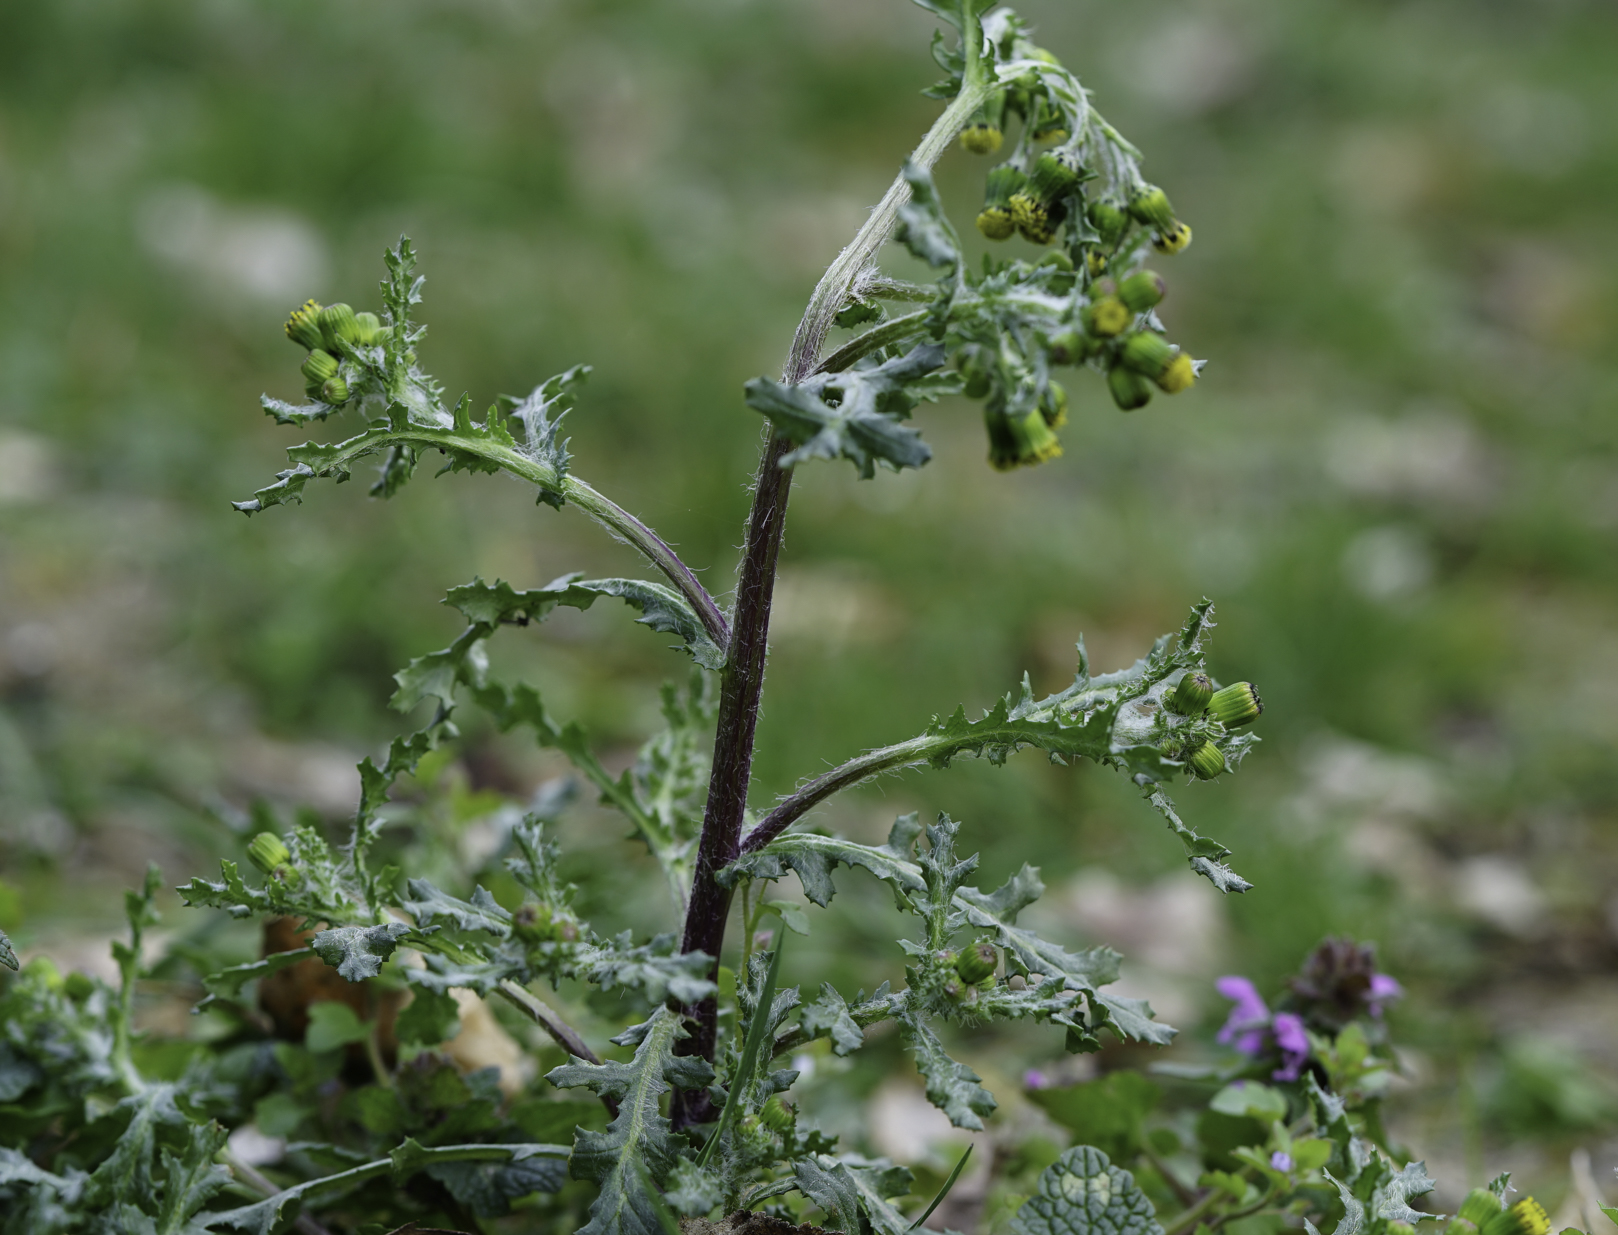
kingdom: Plantae
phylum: Tracheophyta
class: Magnoliopsida
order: Asterales
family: Asteraceae
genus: Senecio
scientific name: Senecio vulgaris
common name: Old-man-in-the-spring
